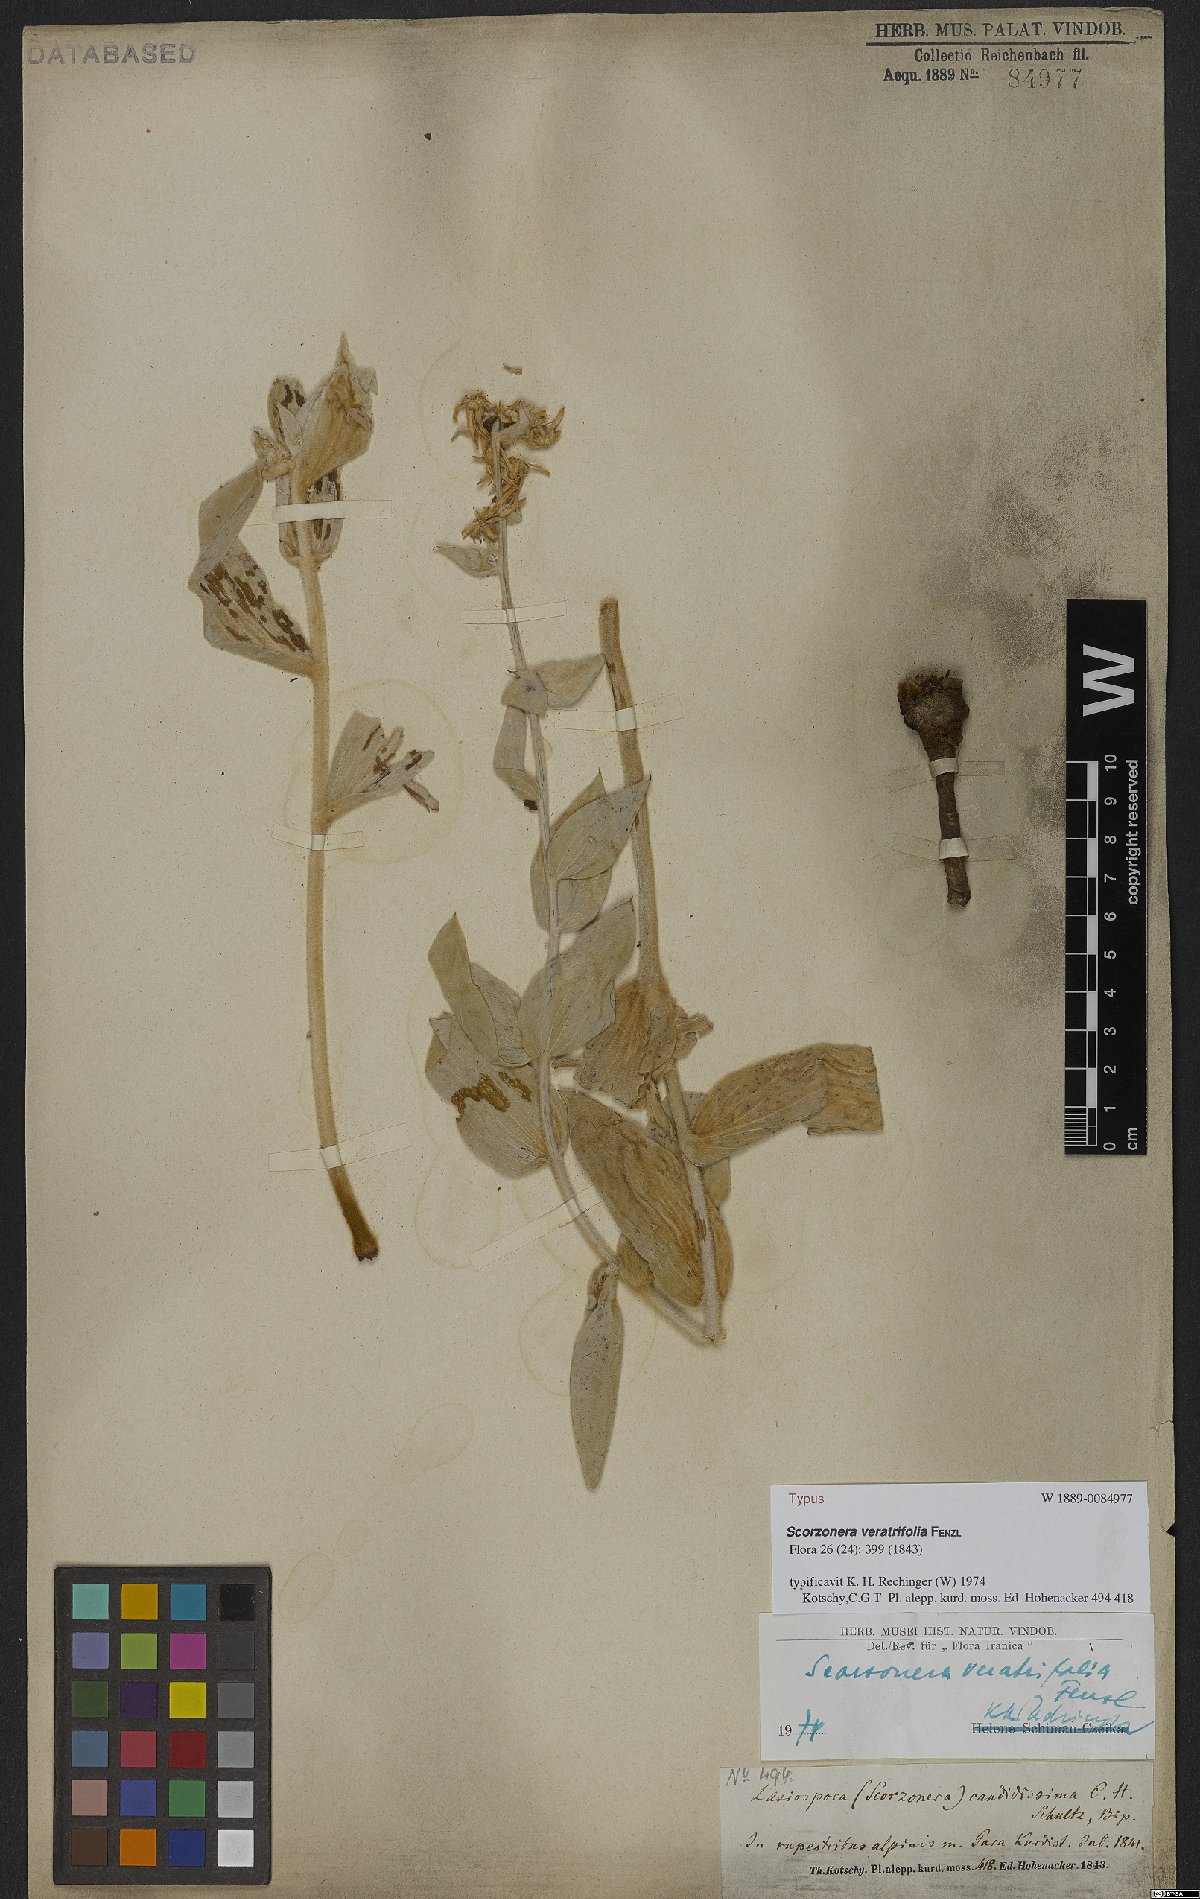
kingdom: Plantae
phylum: Tracheophyta
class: Magnoliopsida
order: Asterales
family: Asteraceae
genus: Guneria
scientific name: Guneria veratrifolia
